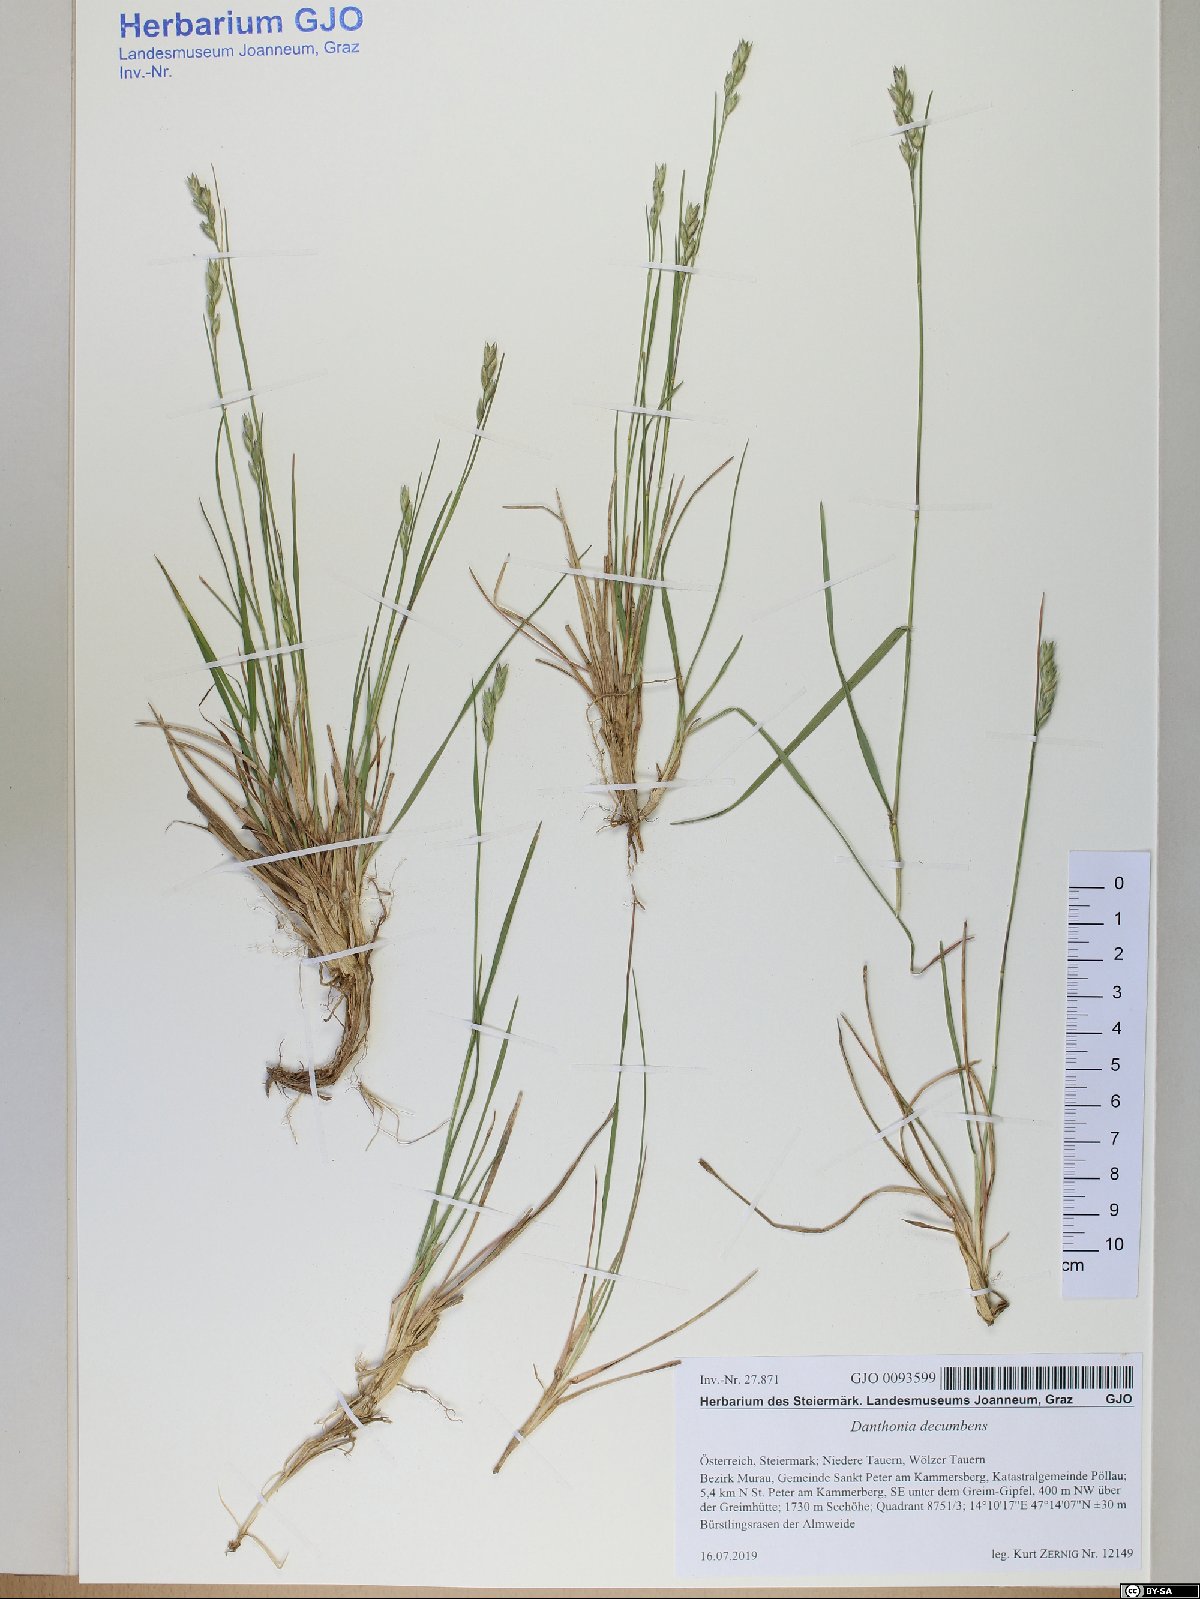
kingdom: Plantae
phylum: Tracheophyta
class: Liliopsida
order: Poales
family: Poaceae
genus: Danthonia
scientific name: Danthonia decumbens
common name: Common heathgrass
